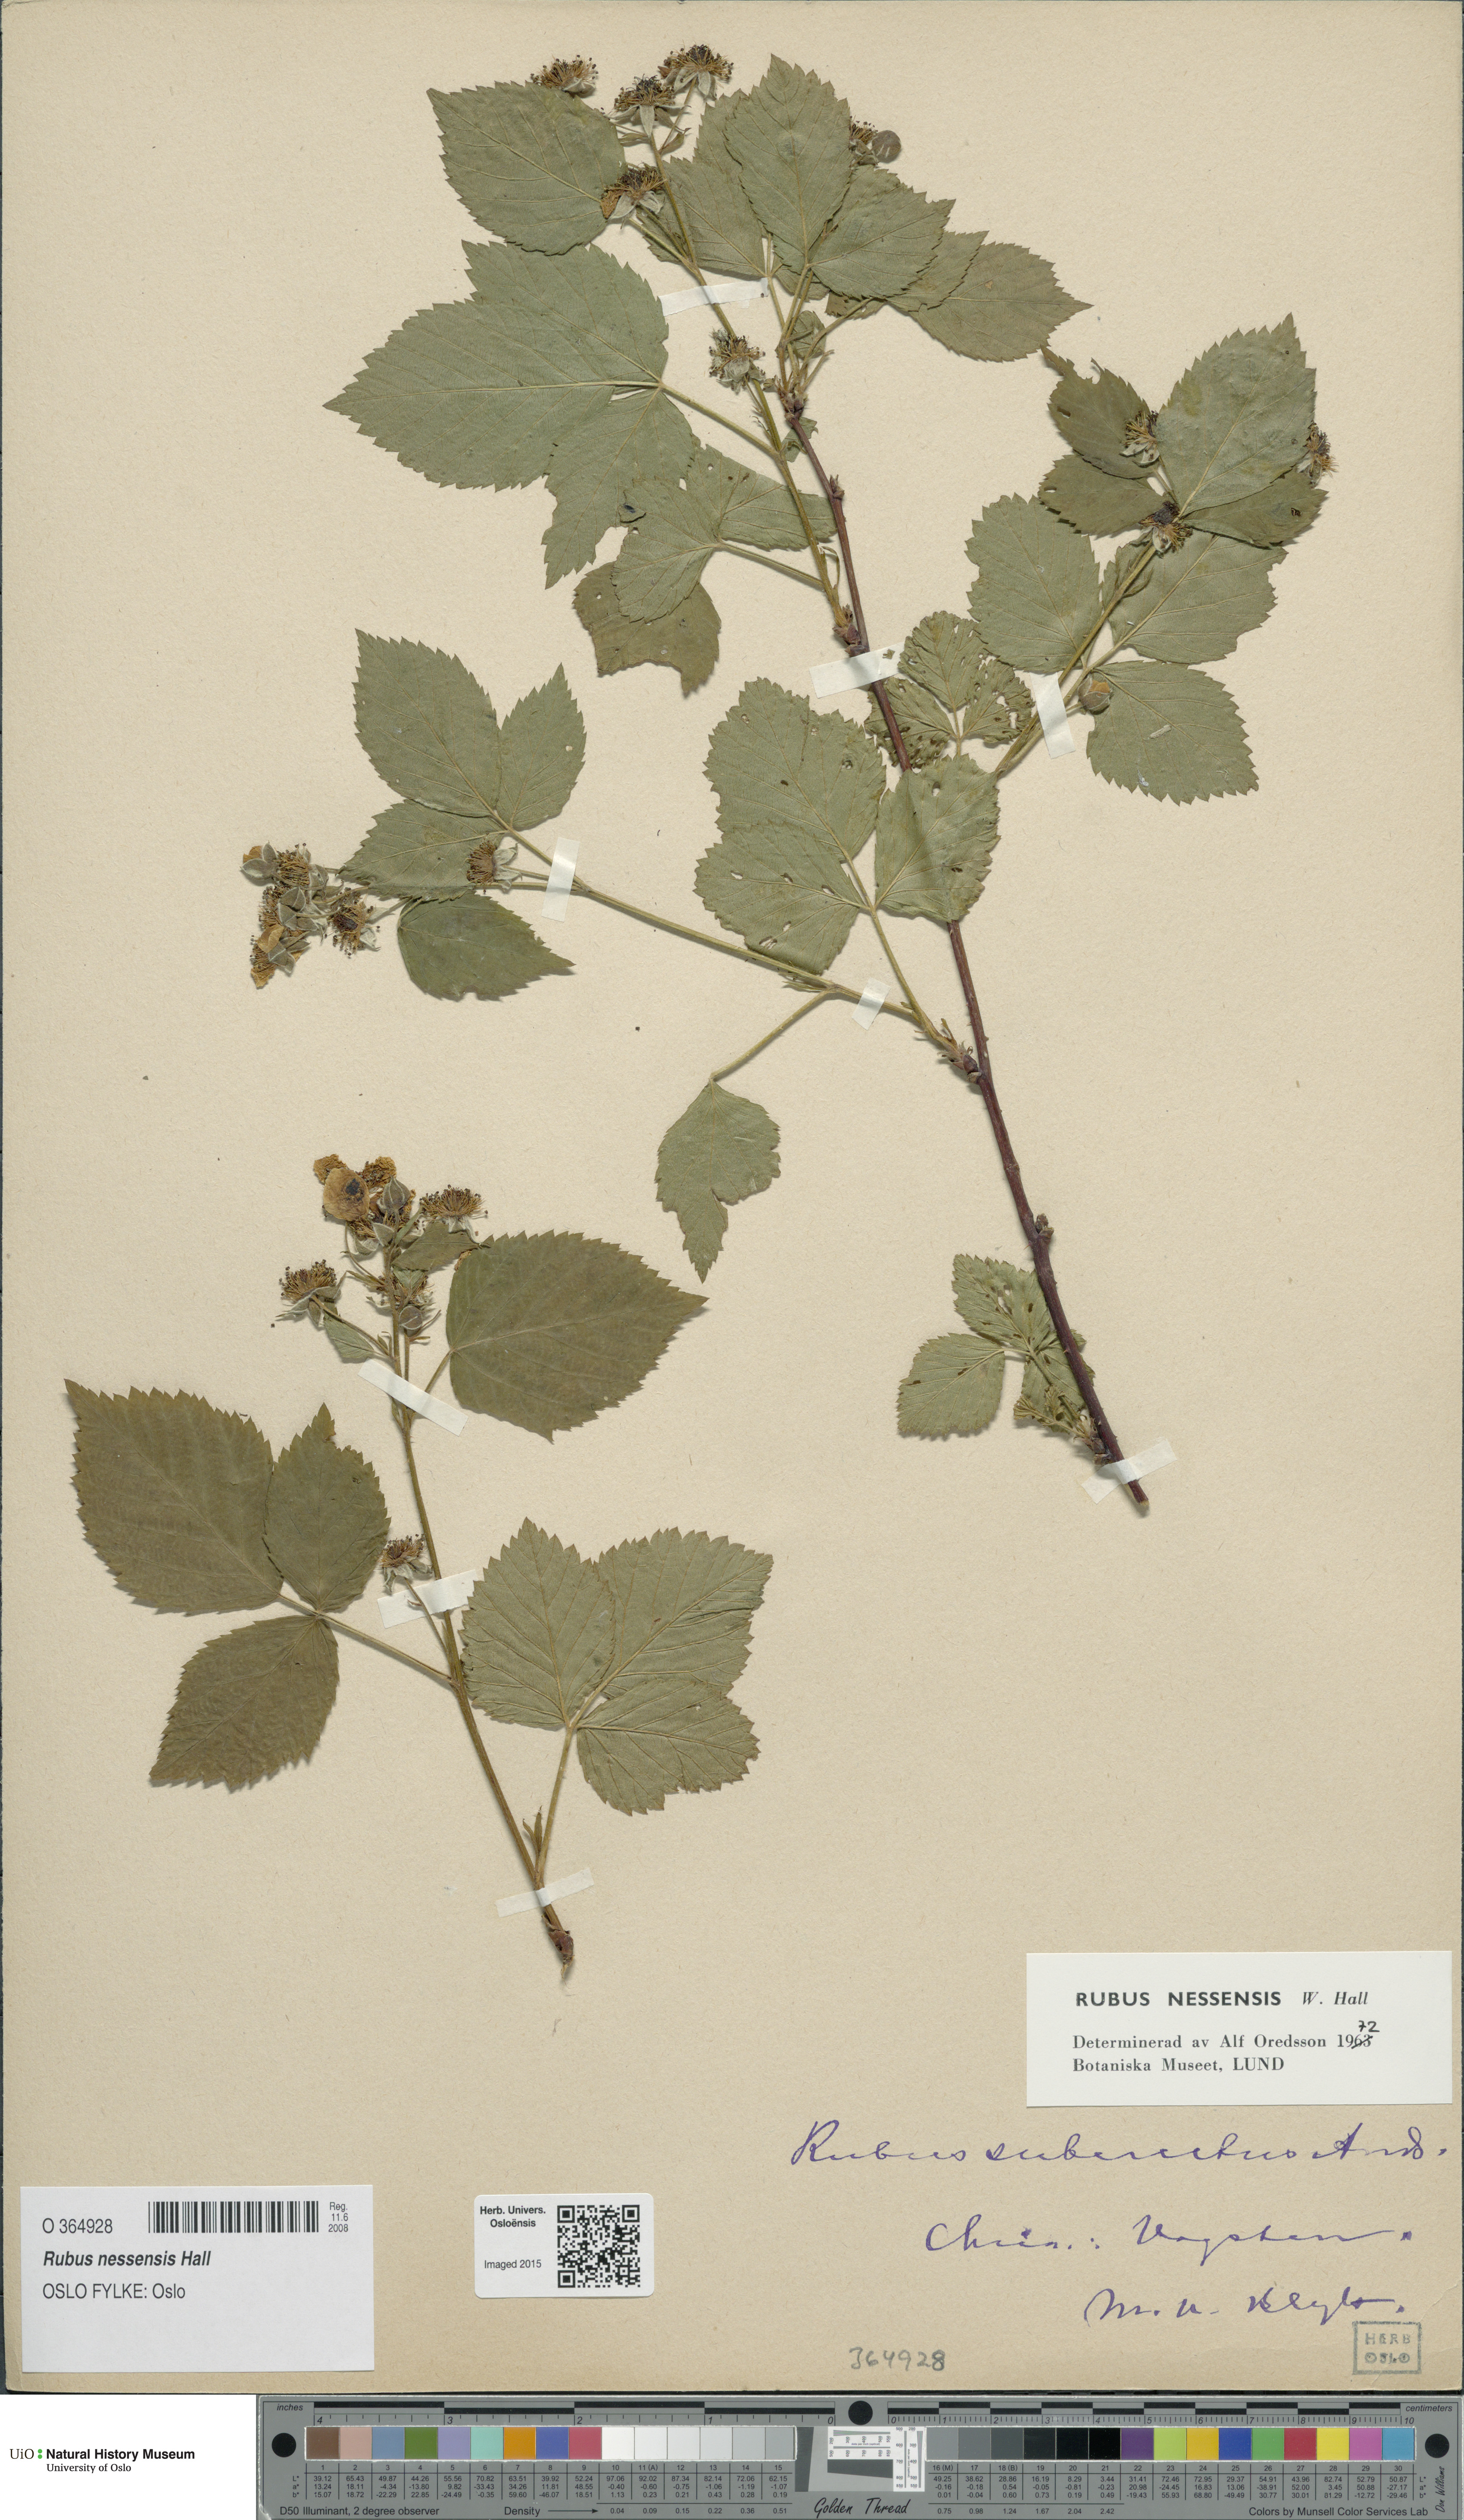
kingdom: Plantae
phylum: Tracheophyta
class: Magnoliopsida
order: Rosales
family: Rosaceae
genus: Rubus
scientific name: Rubus polonicus
